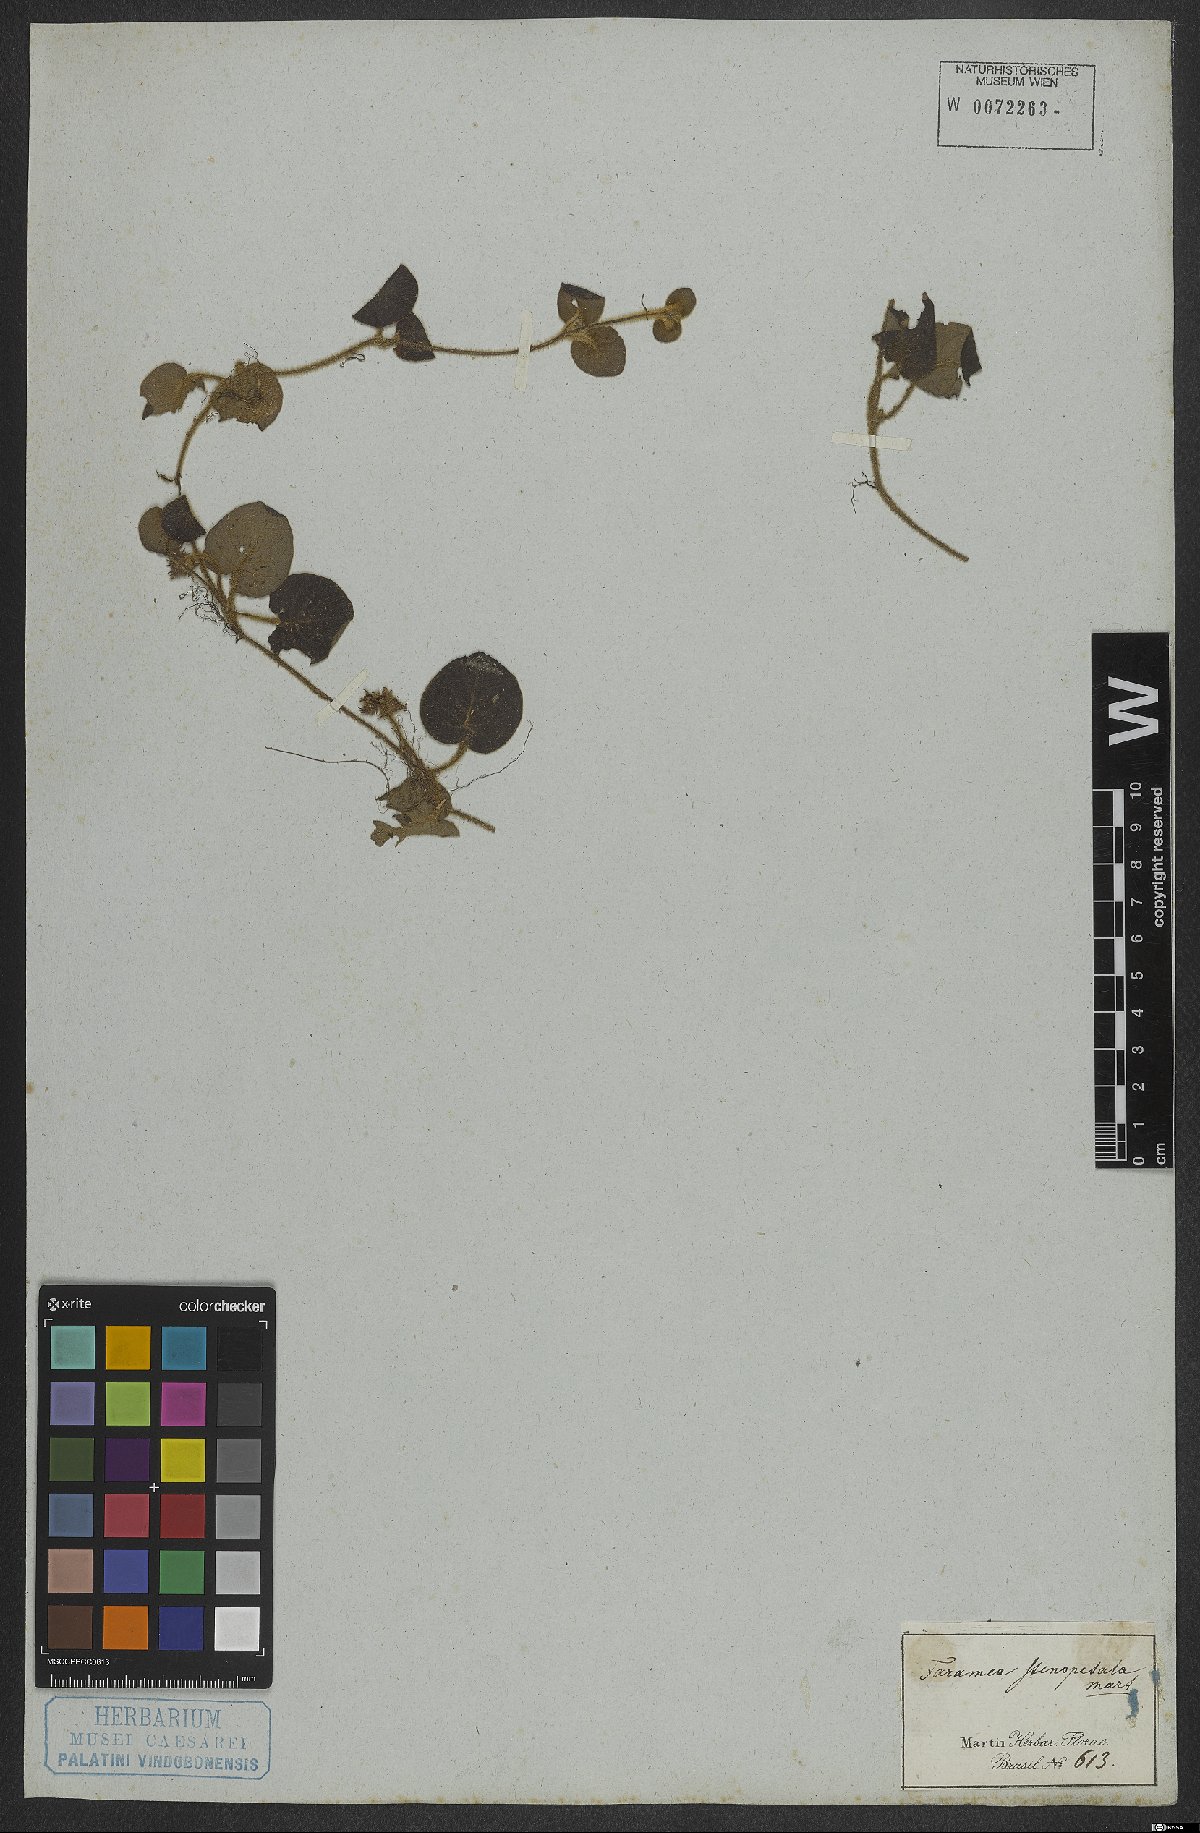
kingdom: Plantae
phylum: Tracheophyta
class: Magnoliopsida
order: Gentianales
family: Rubiaceae
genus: Faramea
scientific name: Faramea stenopetala
